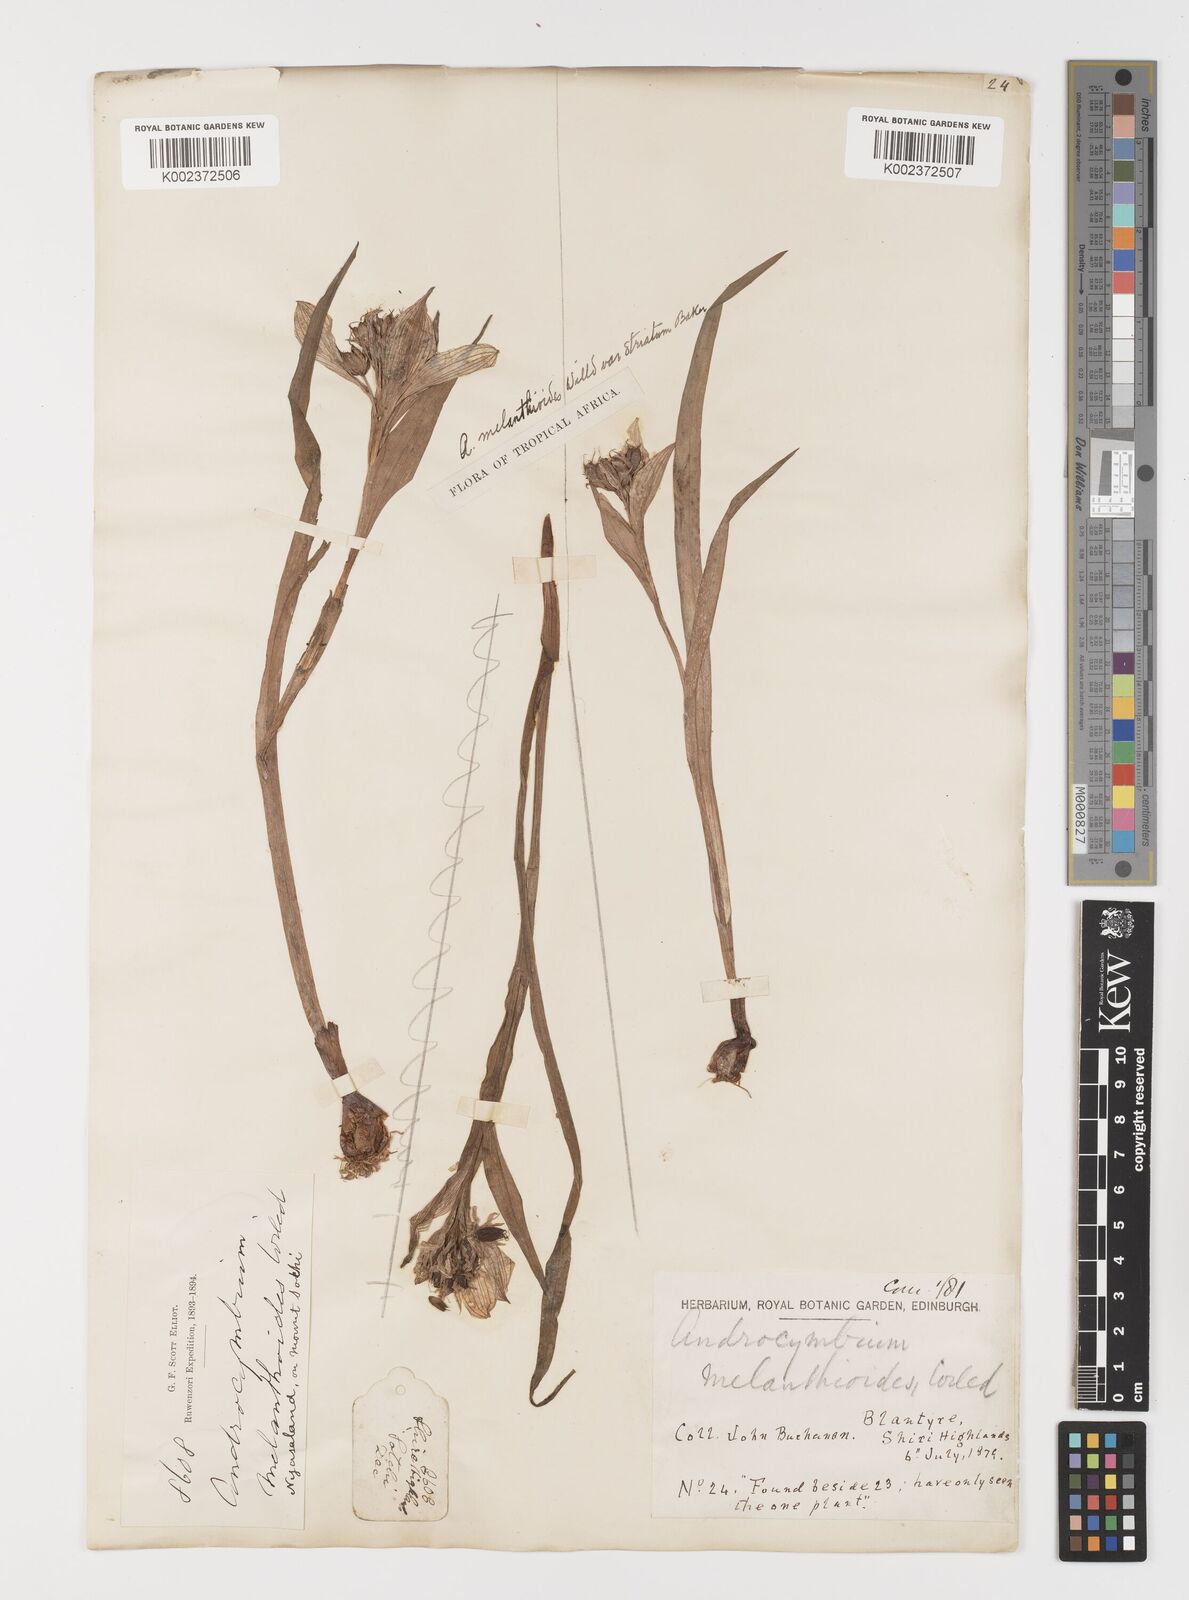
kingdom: Plantae
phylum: Tracheophyta
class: Liliopsida
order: Liliales
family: Colchicaceae
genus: Colchicum
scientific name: Colchicum melanthioides
